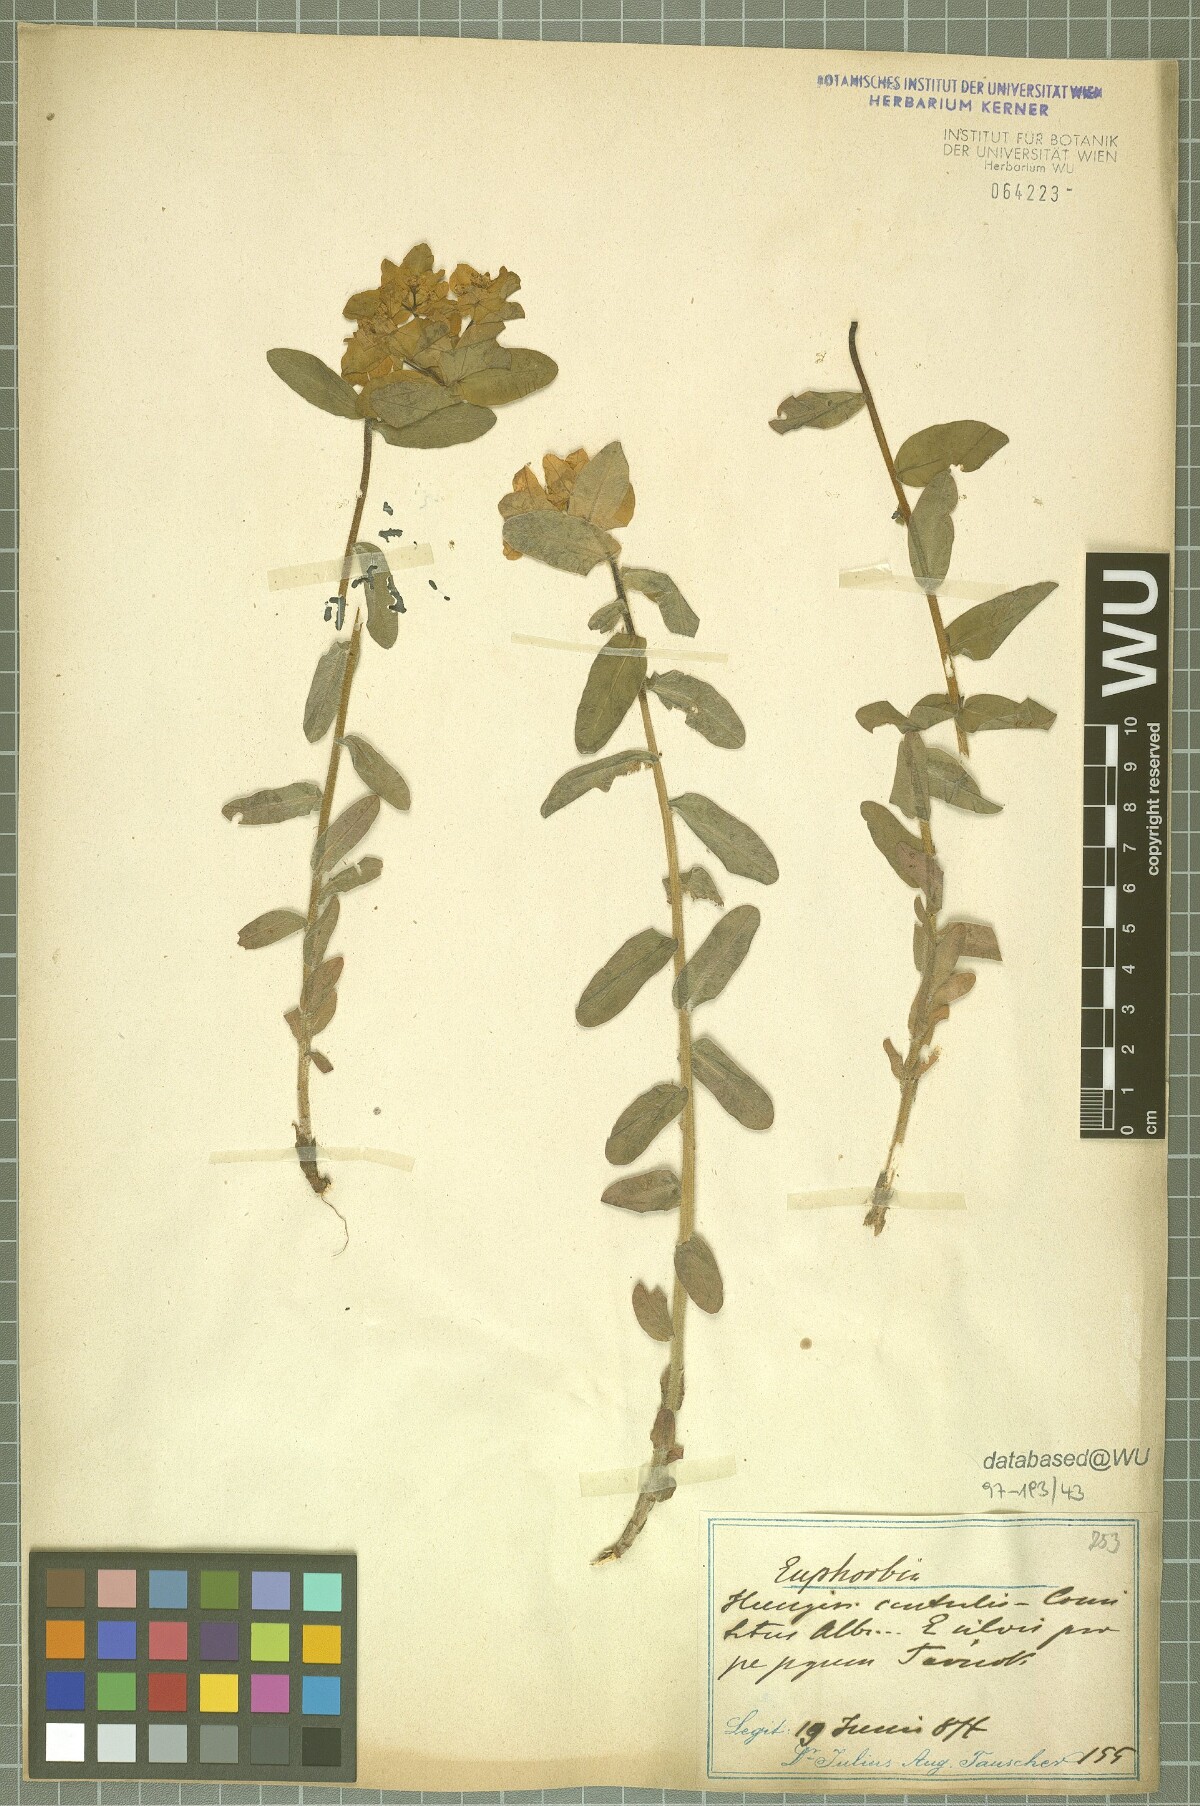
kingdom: Plantae
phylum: Tracheophyta
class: Magnoliopsida
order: Malpighiales
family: Euphorbiaceae
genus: Euphorbia
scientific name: Euphorbia epithymoides
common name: Cushion spurge
